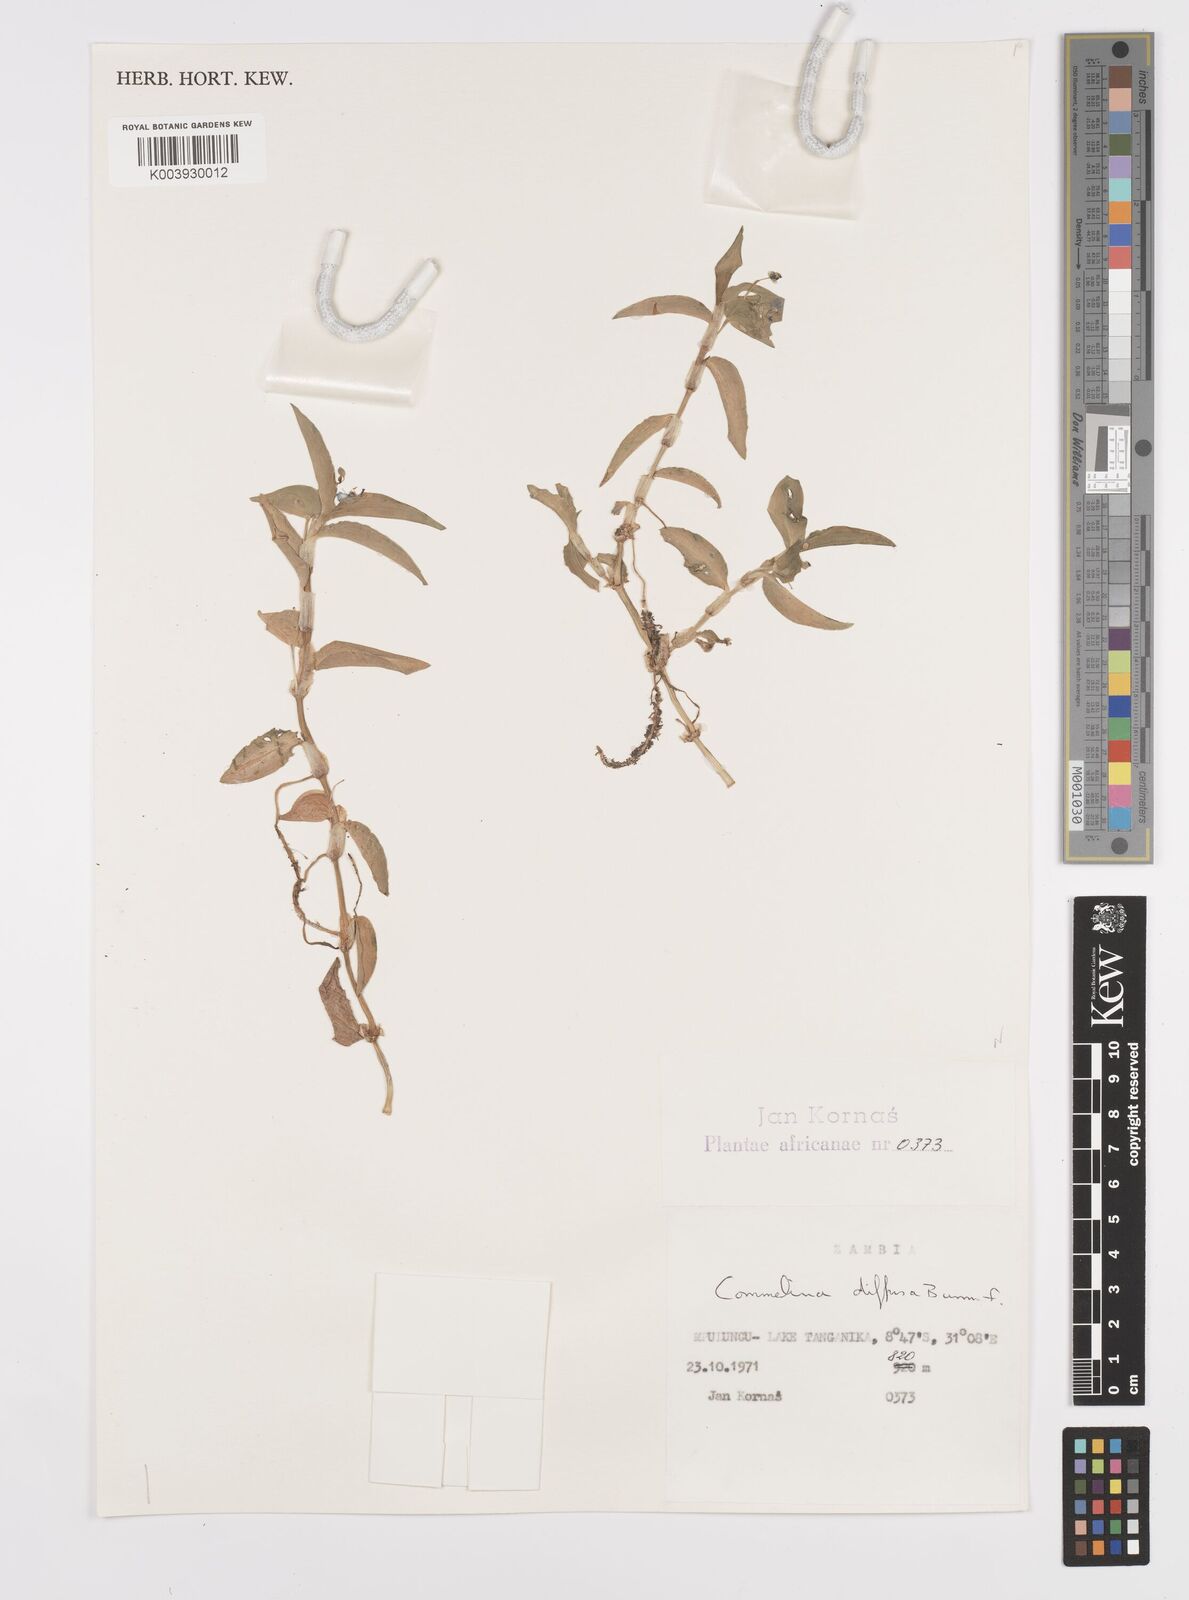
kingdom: Plantae
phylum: Tracheophyta
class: Liliopsida
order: Commelinales
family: Commelinaceae
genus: Commelina
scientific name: Commelina diffusa
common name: Climbing dayflower
